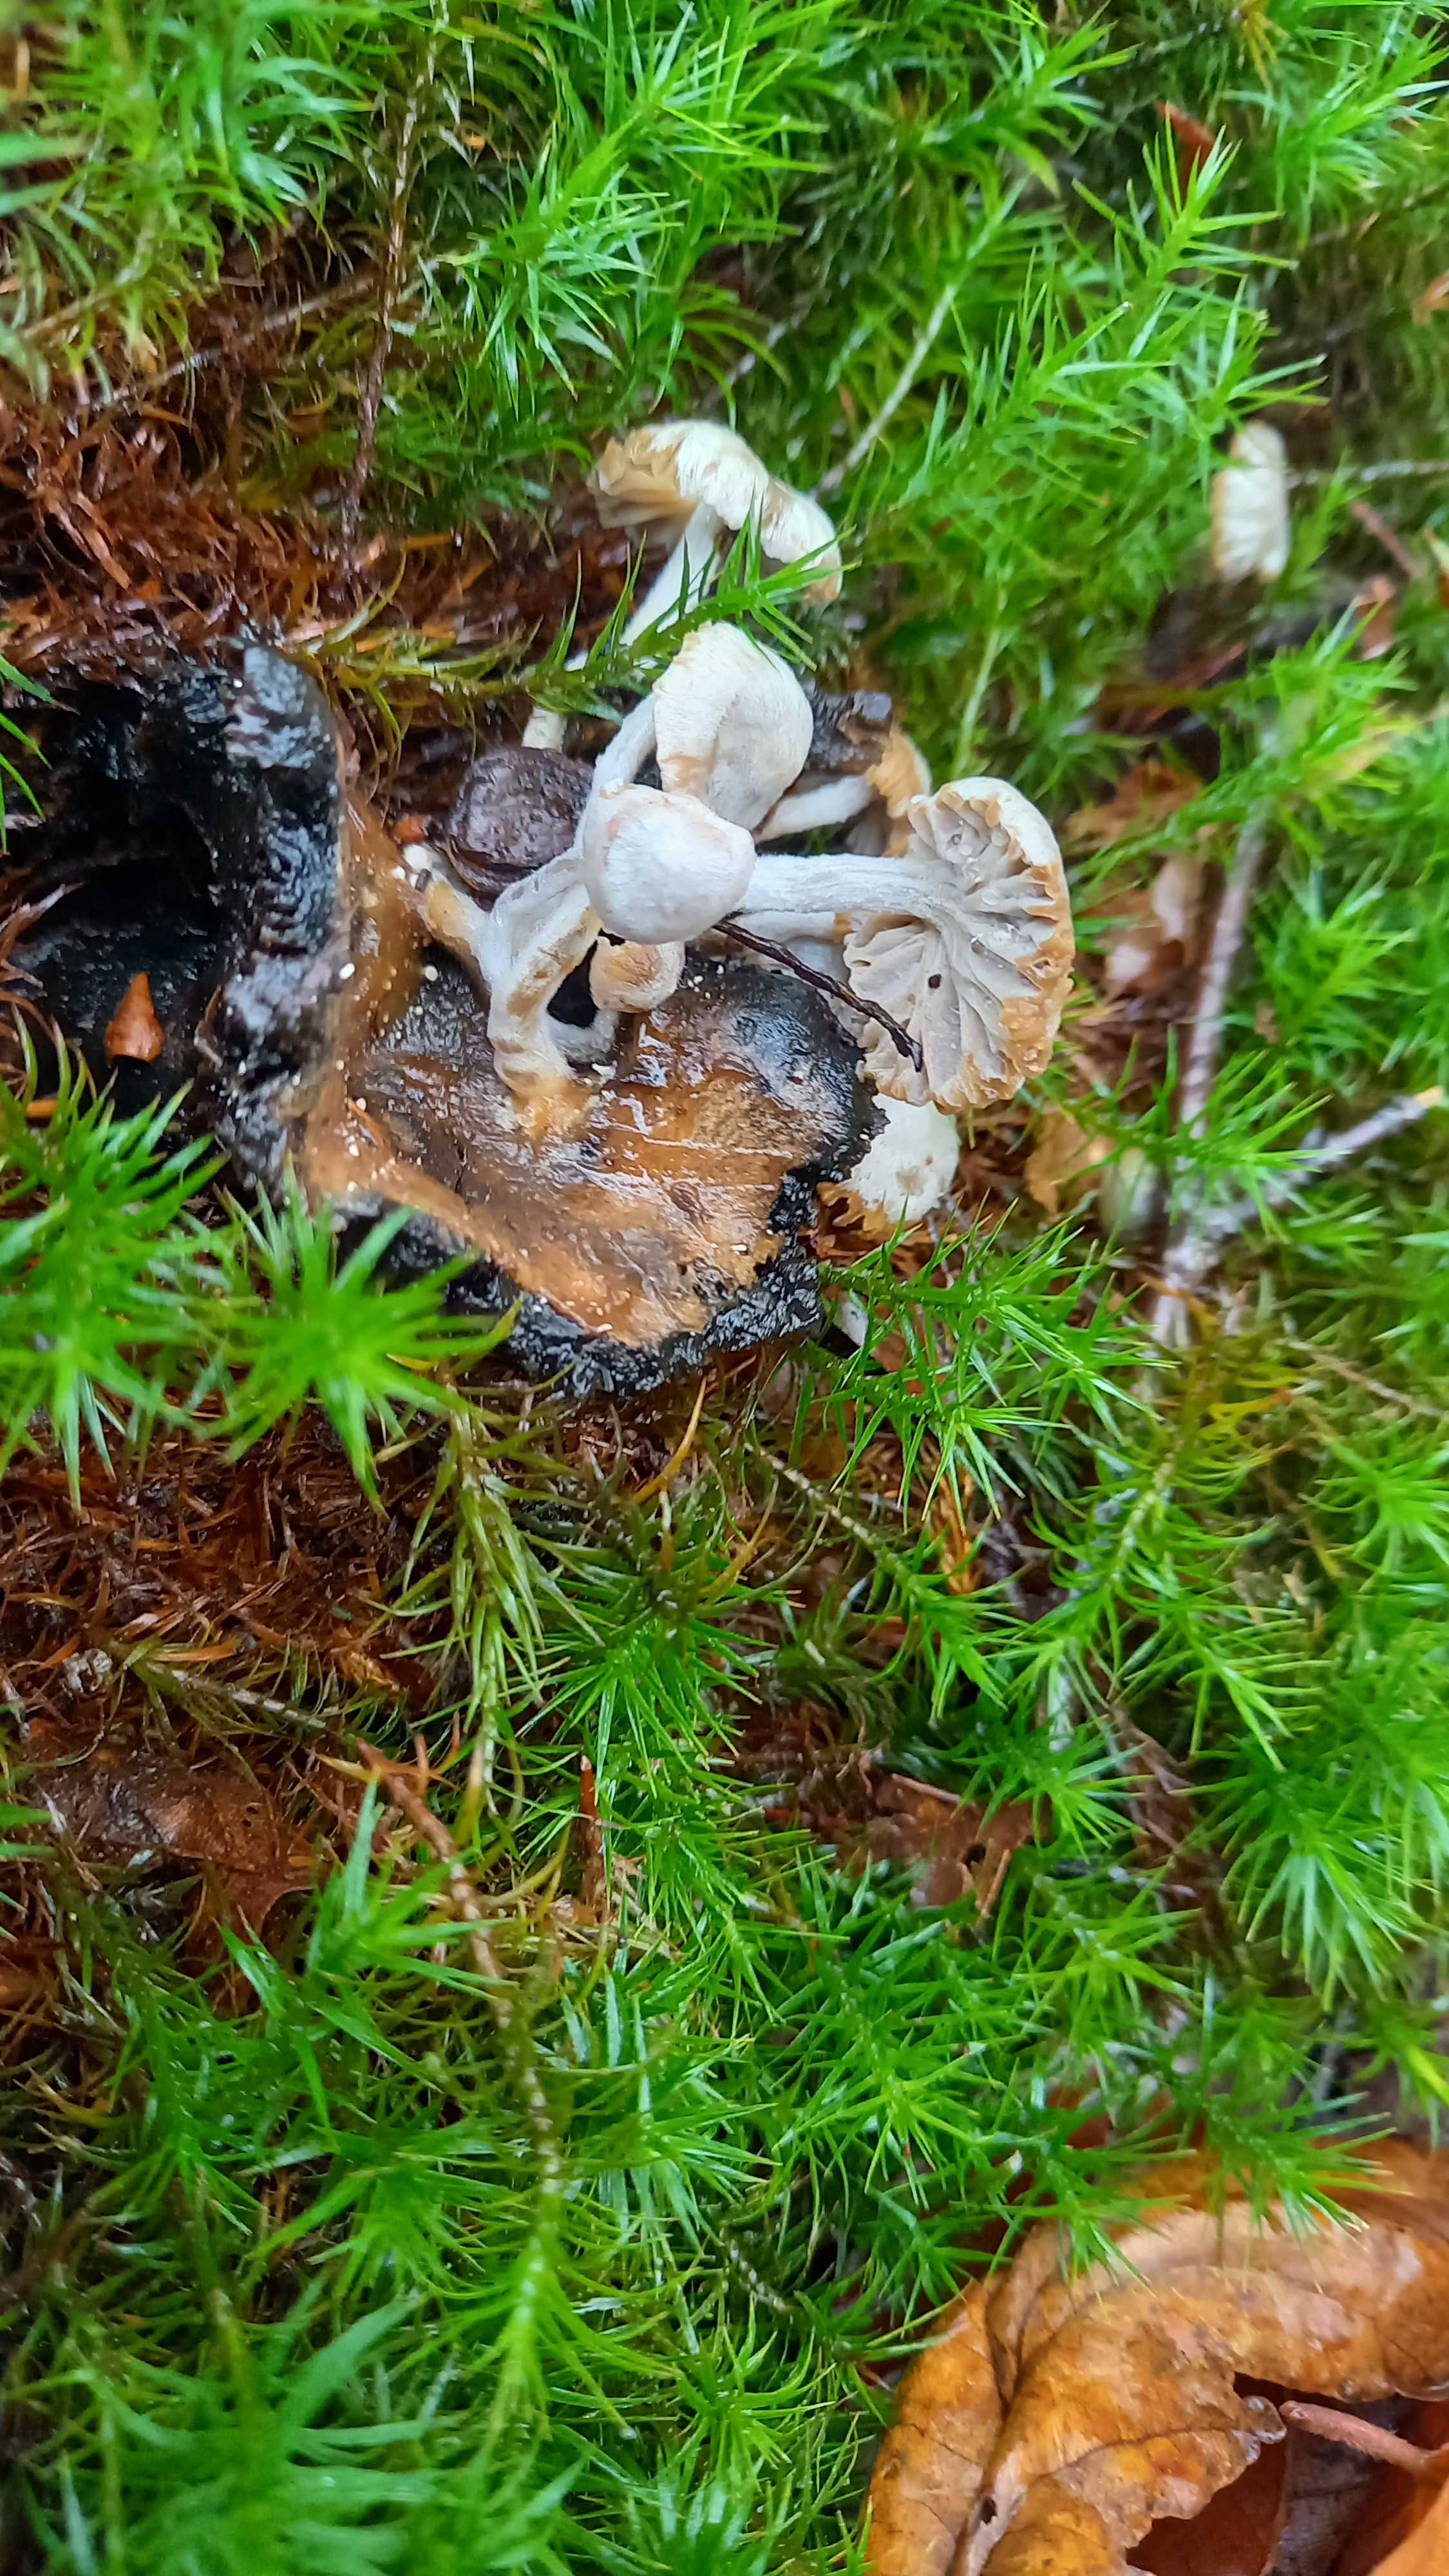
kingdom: Fungi
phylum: Basidiomycota
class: Agaricomycetes
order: Agaricales
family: Lyophyllaceae
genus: Asterophora
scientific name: Asterophora parasitica
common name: grå snyltehat
